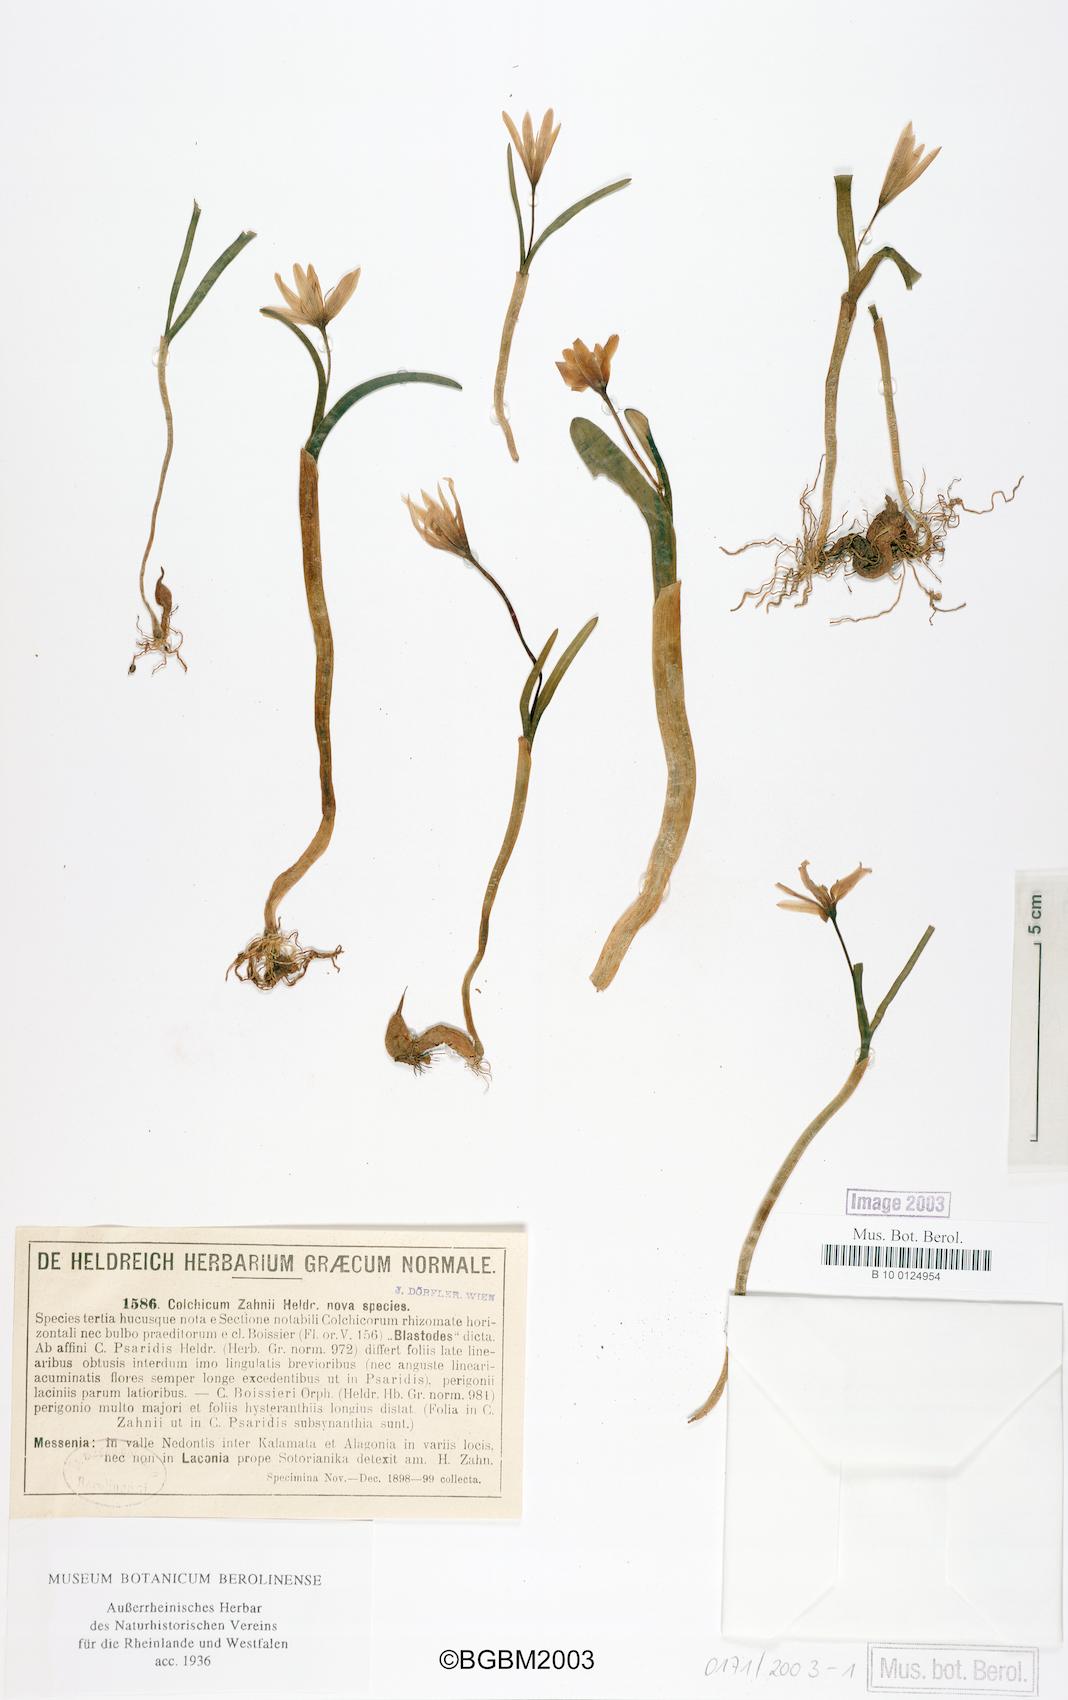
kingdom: Plantae
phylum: Tracheophyta
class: Liliopsida
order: Liliales
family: Colchicaceae
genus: Colchicum
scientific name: Colchicum
